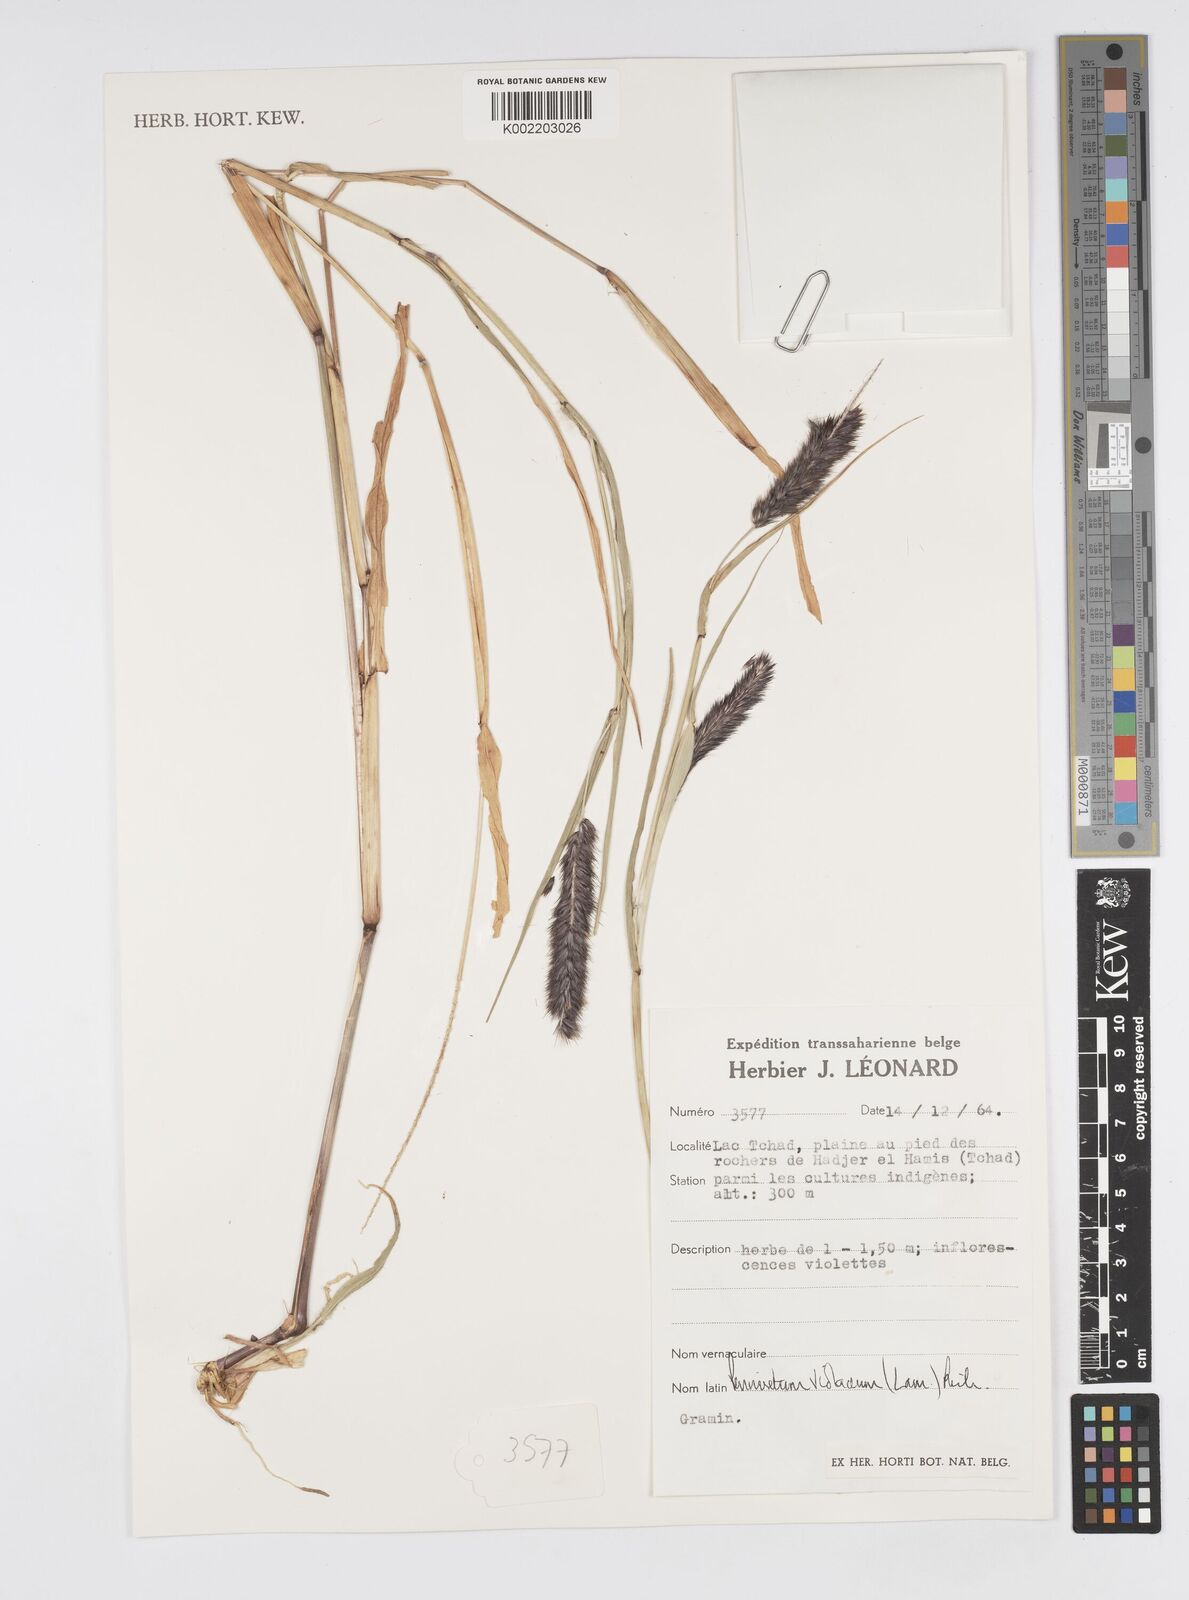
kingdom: Plantae
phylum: Tracheophyta
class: Liliopsida
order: Poales
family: Poaceae
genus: Cenchrus
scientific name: Cenchrus violaceus
